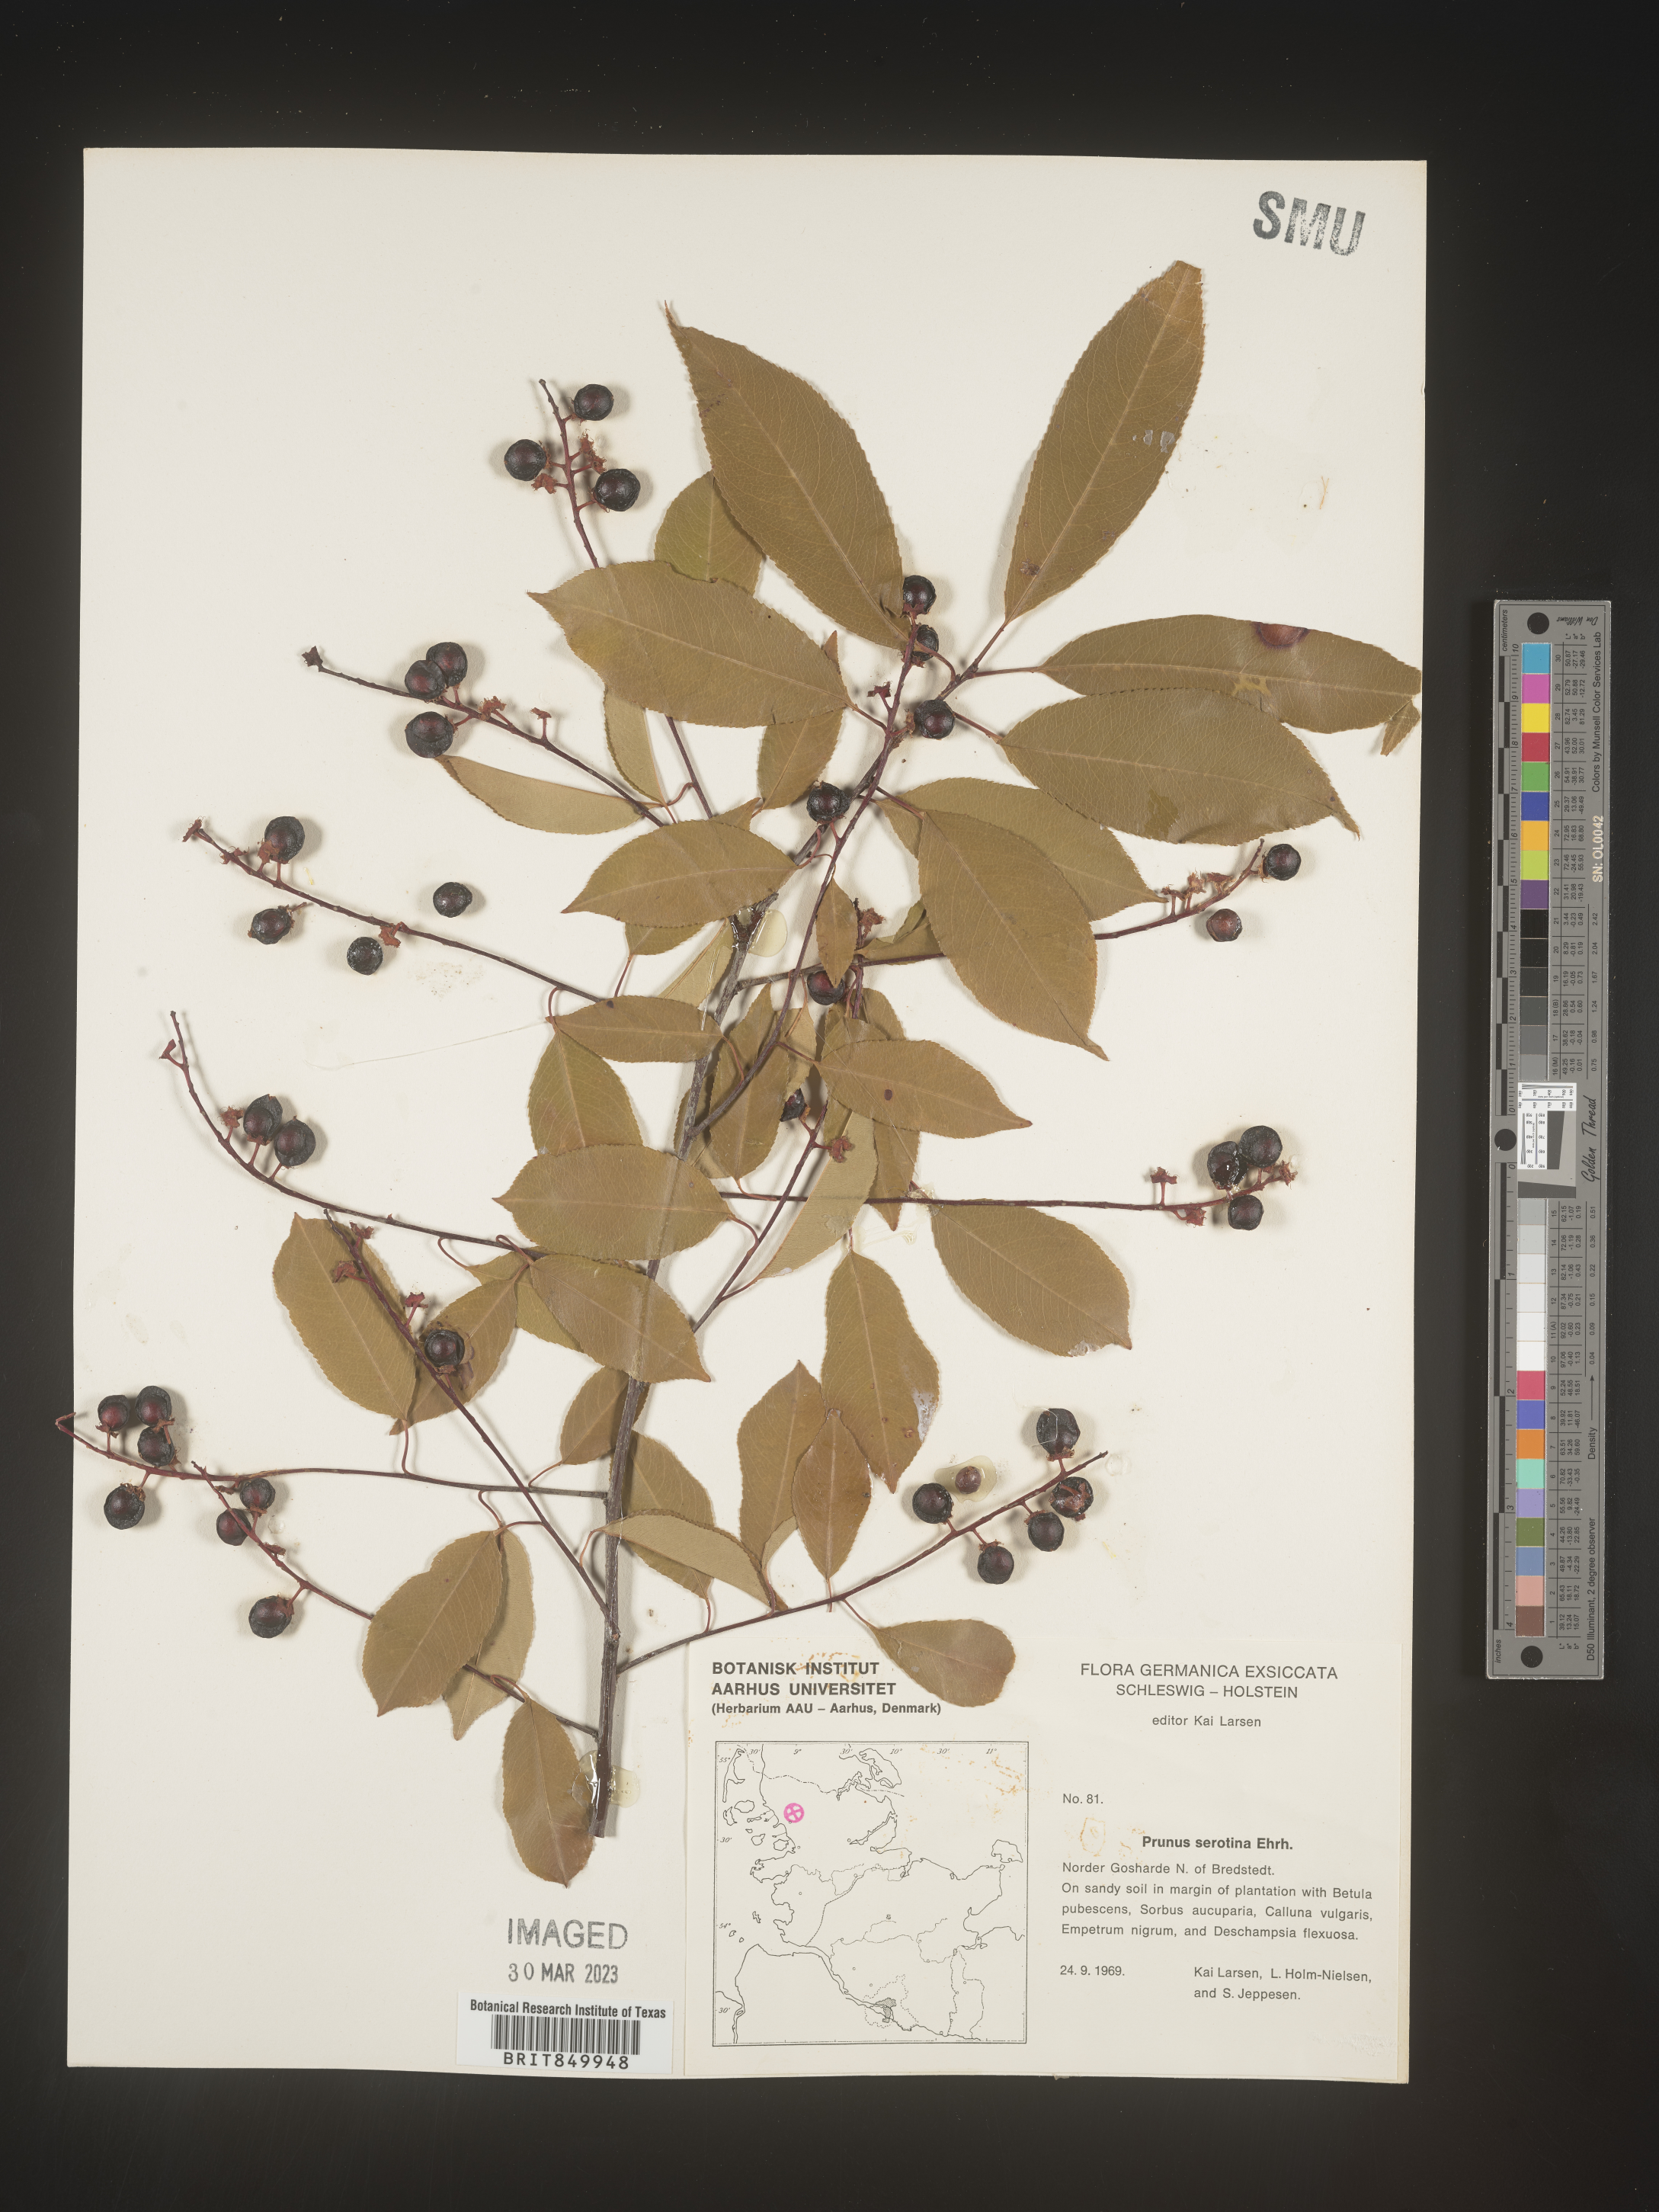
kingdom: Plantae
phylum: Tracheophyta
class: Magnoliopsida
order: Rosales
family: Rosaceae
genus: Prunus
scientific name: Prunus
